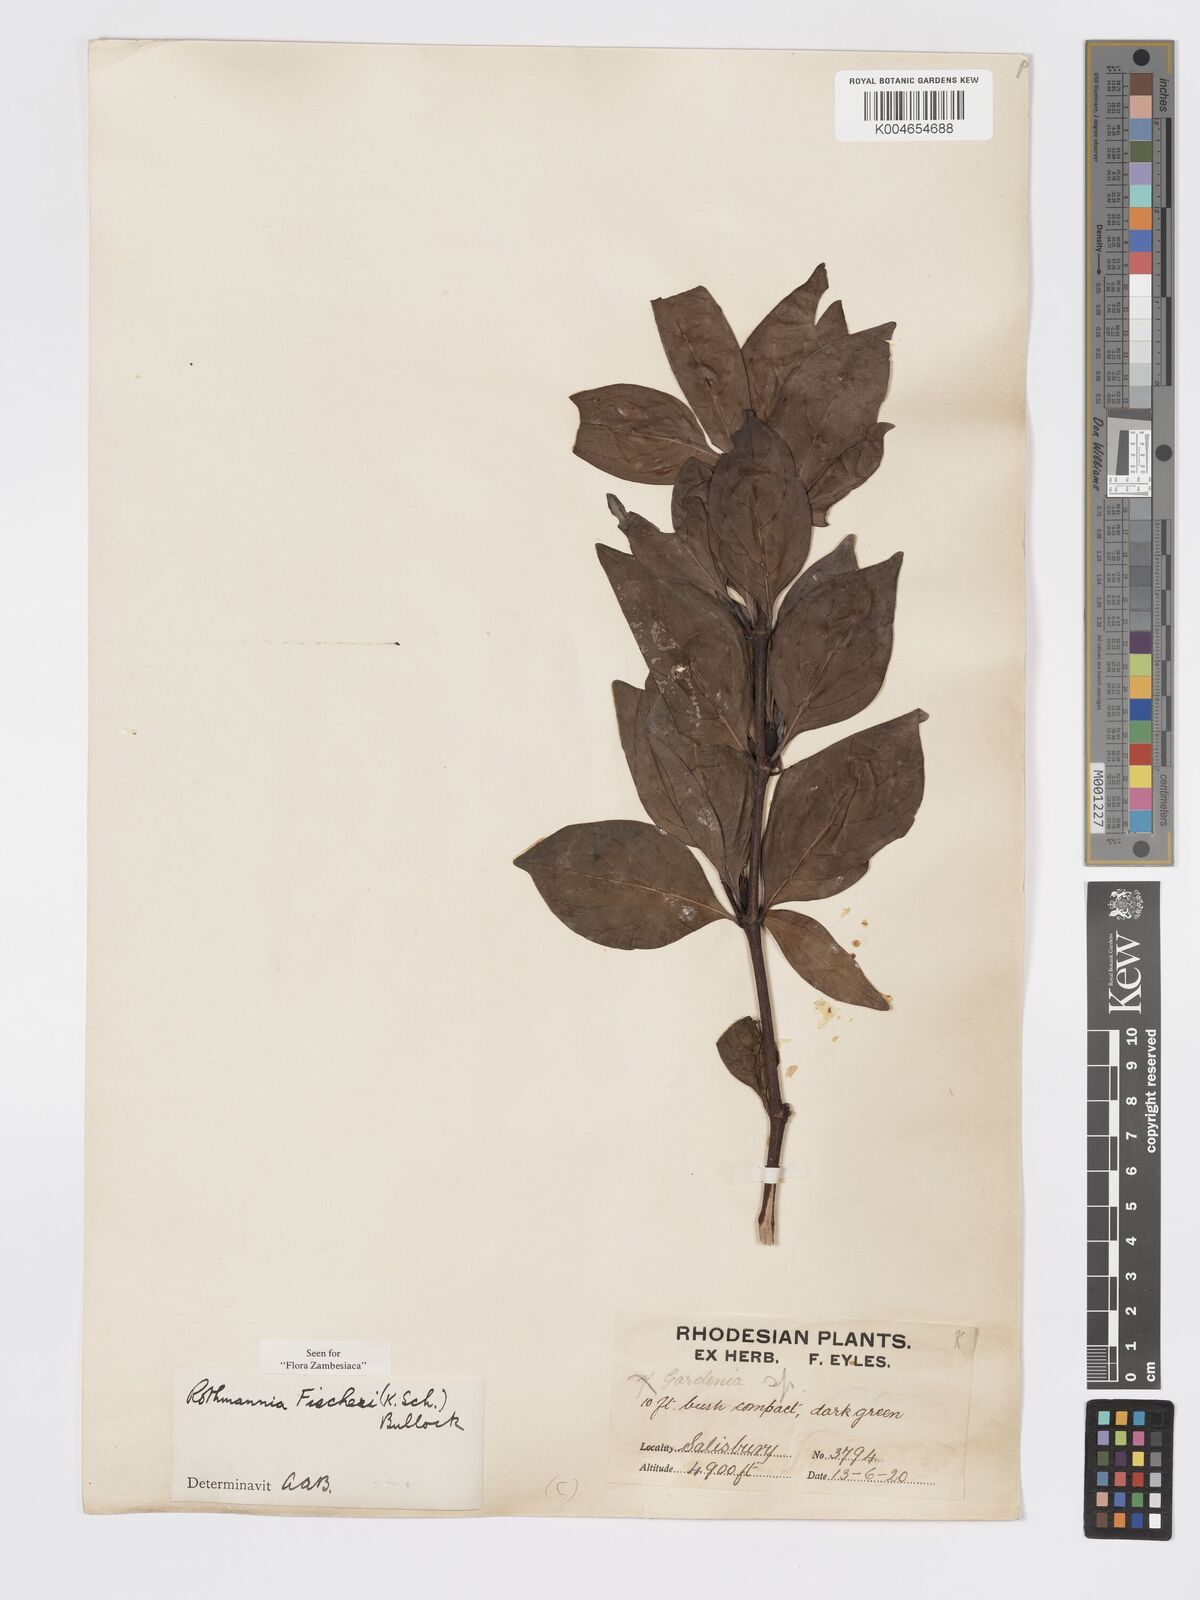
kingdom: Plantae
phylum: Tracheophyta
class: Magnoliopsida
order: Gentianales
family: Rubiaceae
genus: Rothmannia
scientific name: Rothmannia fischeri
